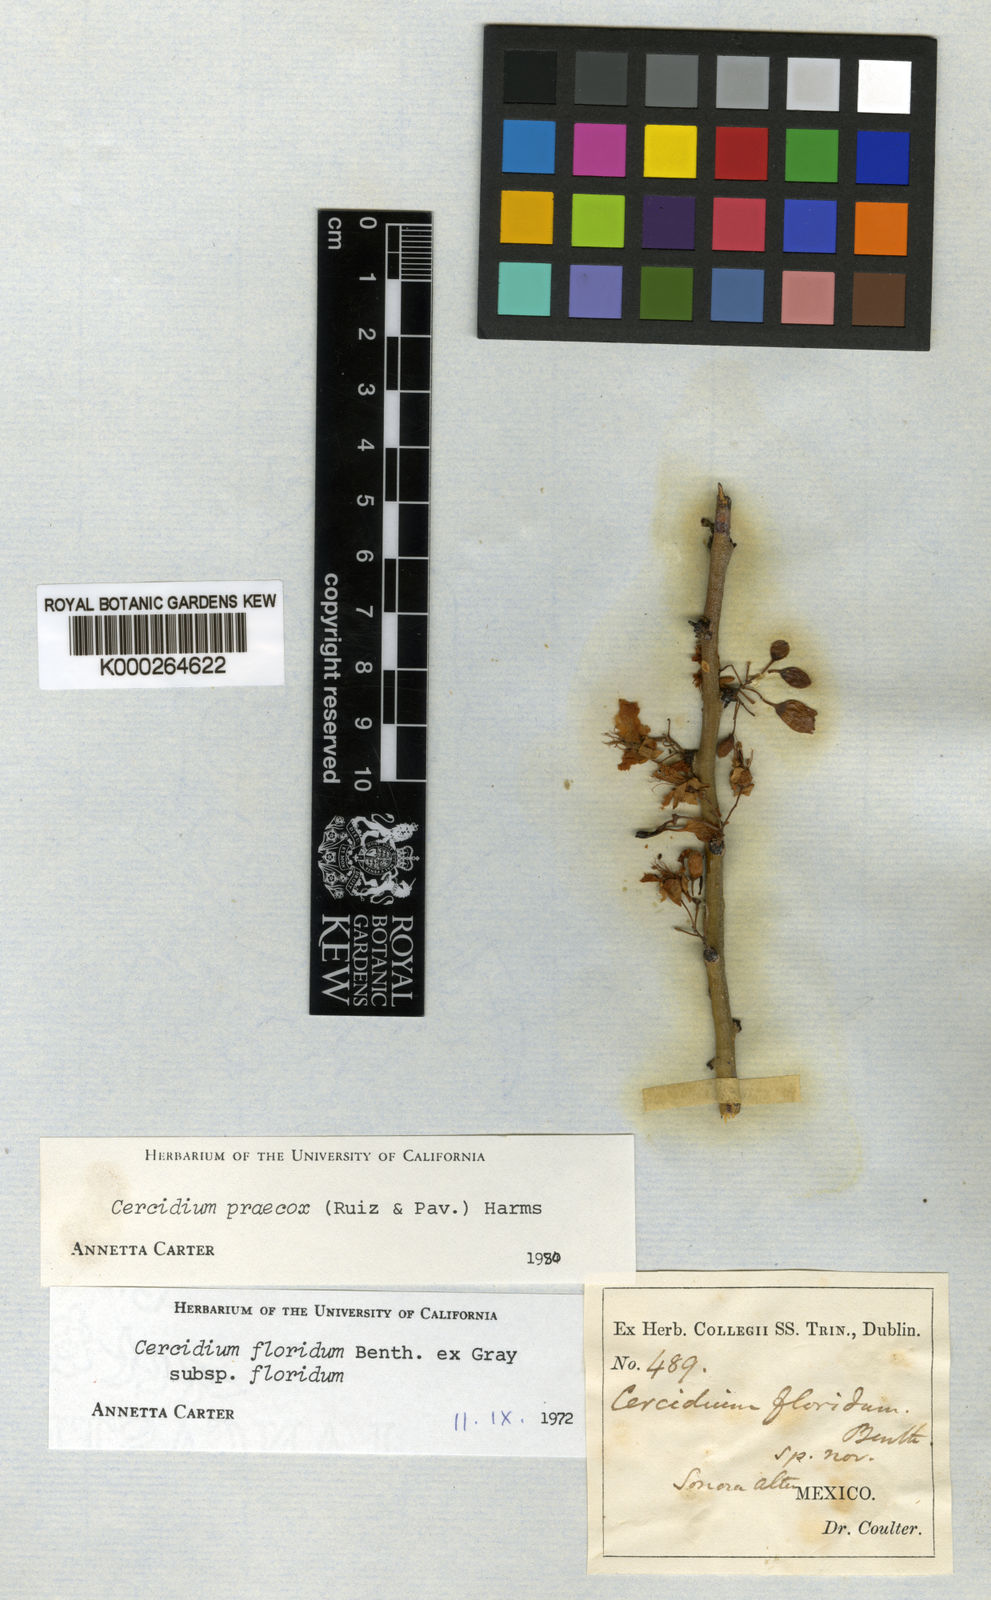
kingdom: Plantae
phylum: Tracheophyta
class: Magnoliopsida
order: Fabales
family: Fabaceae
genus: Parkinsonia
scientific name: Parkinsonia florida
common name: Blue paloverde
